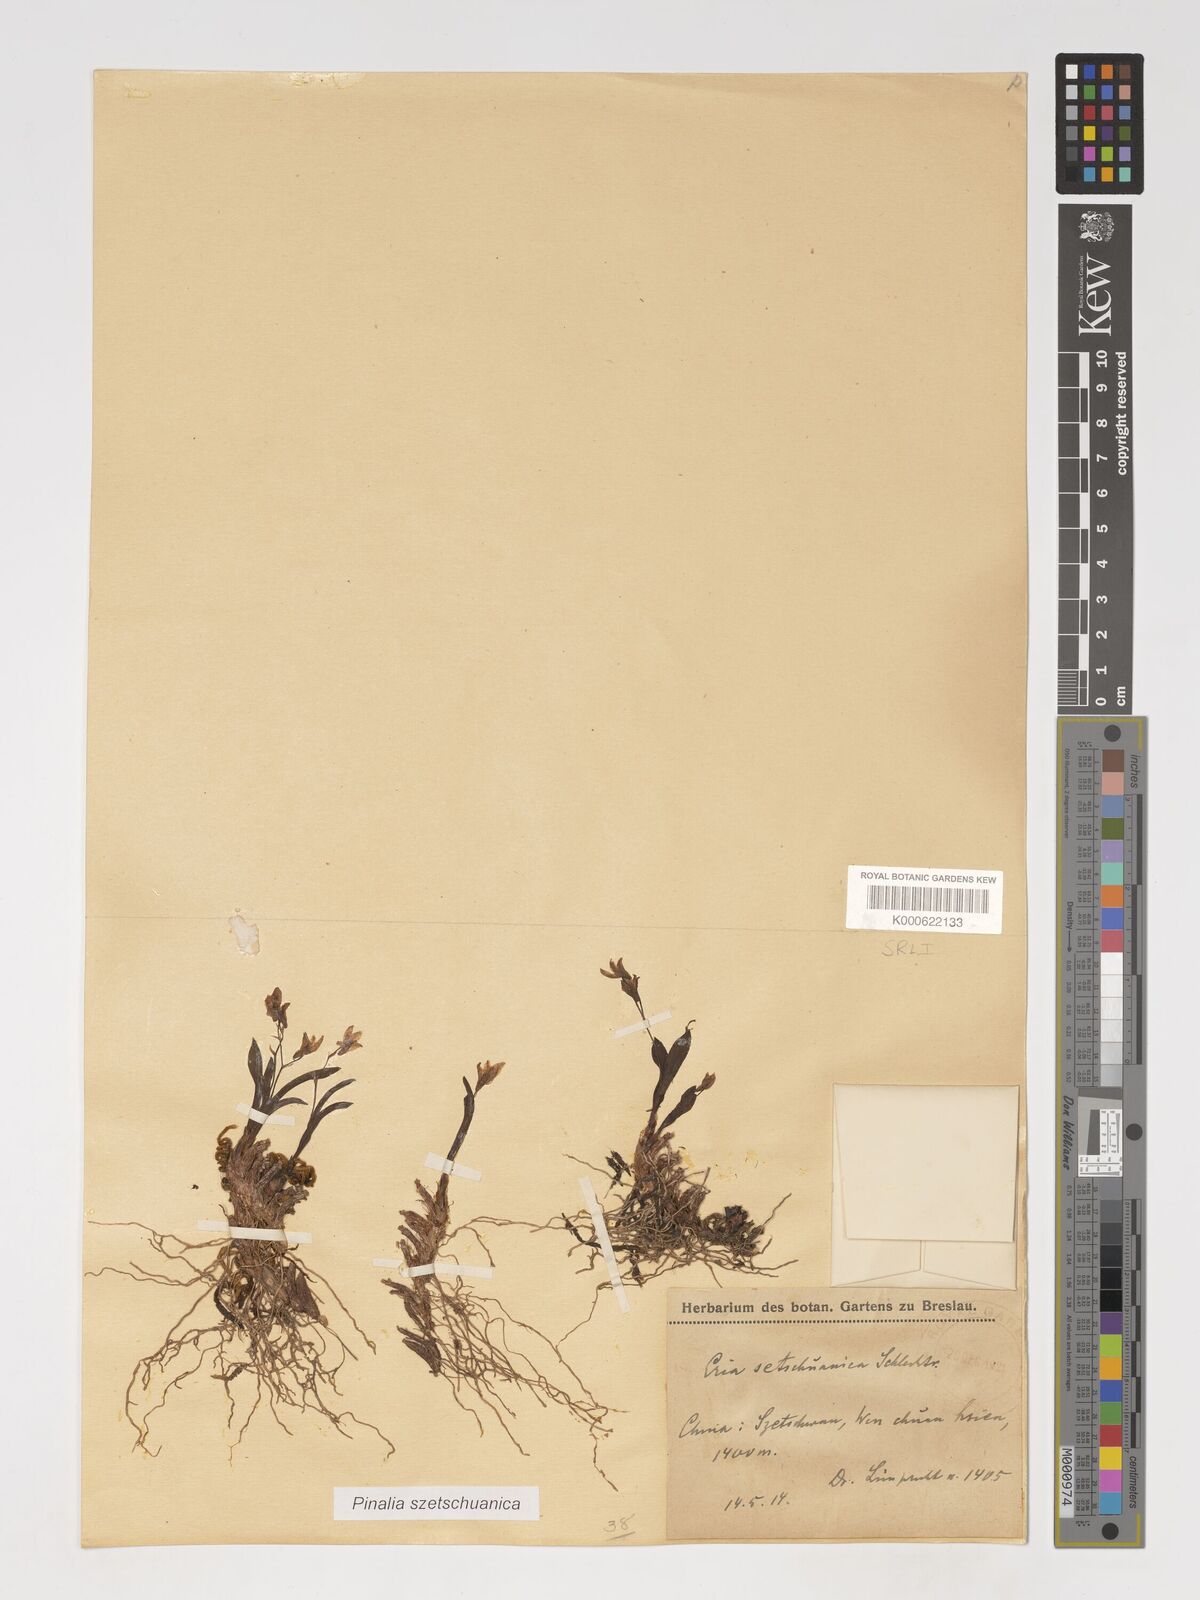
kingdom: Plantae
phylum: Tracheophyta
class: Liliopsida
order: Asparagales
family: Orchidaceae
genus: Pinalia
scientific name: Pinalia szetschuanica
